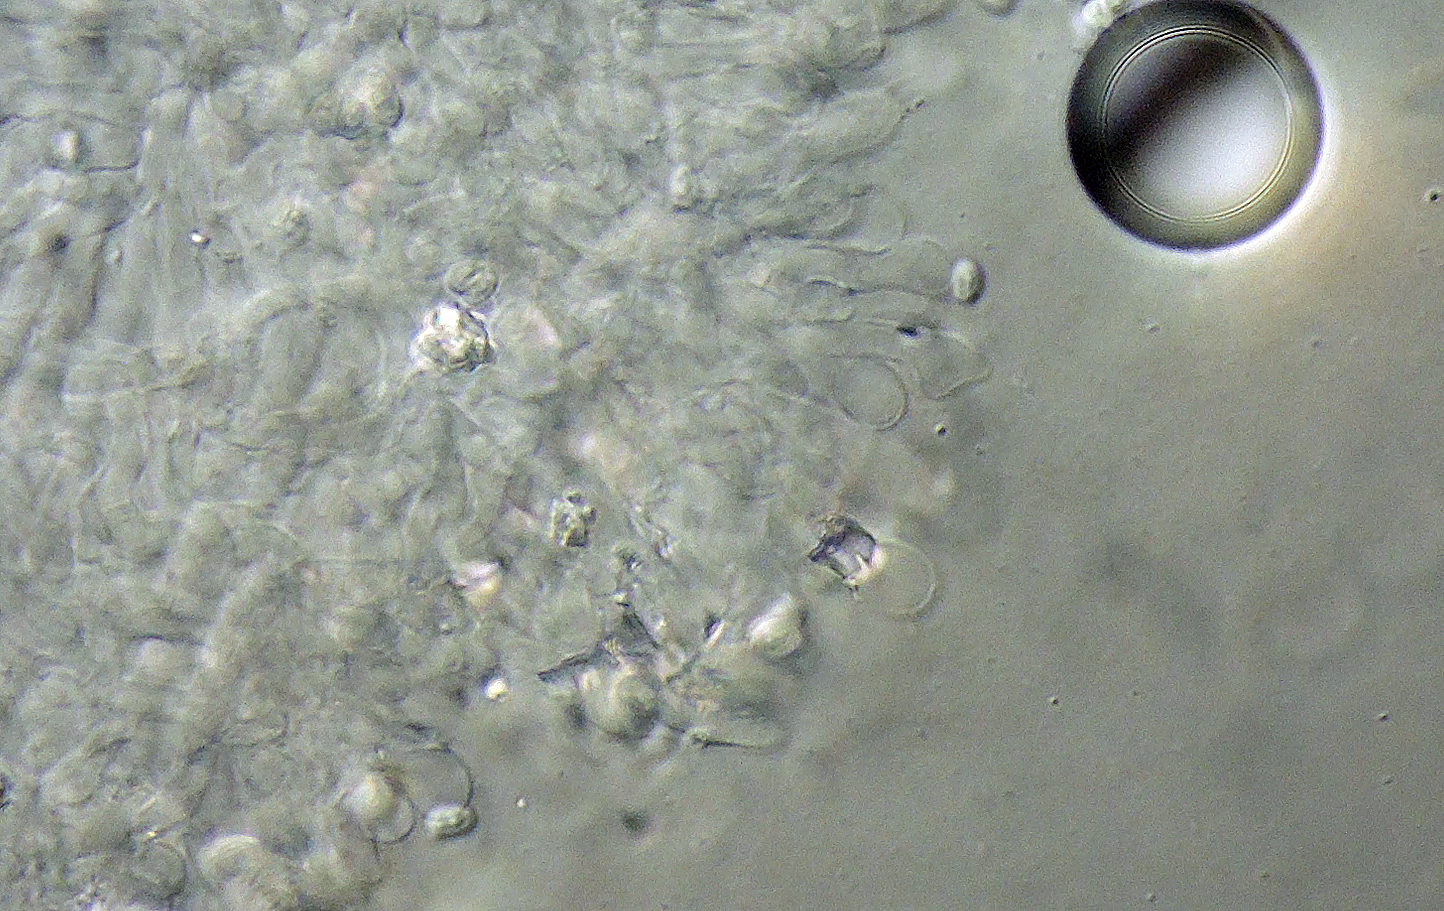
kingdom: Fungi
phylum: Basidiomycota
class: Agaricomycetes
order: Agaricales
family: Agaricaceae
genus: Echinoderma
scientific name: Echinoderma
